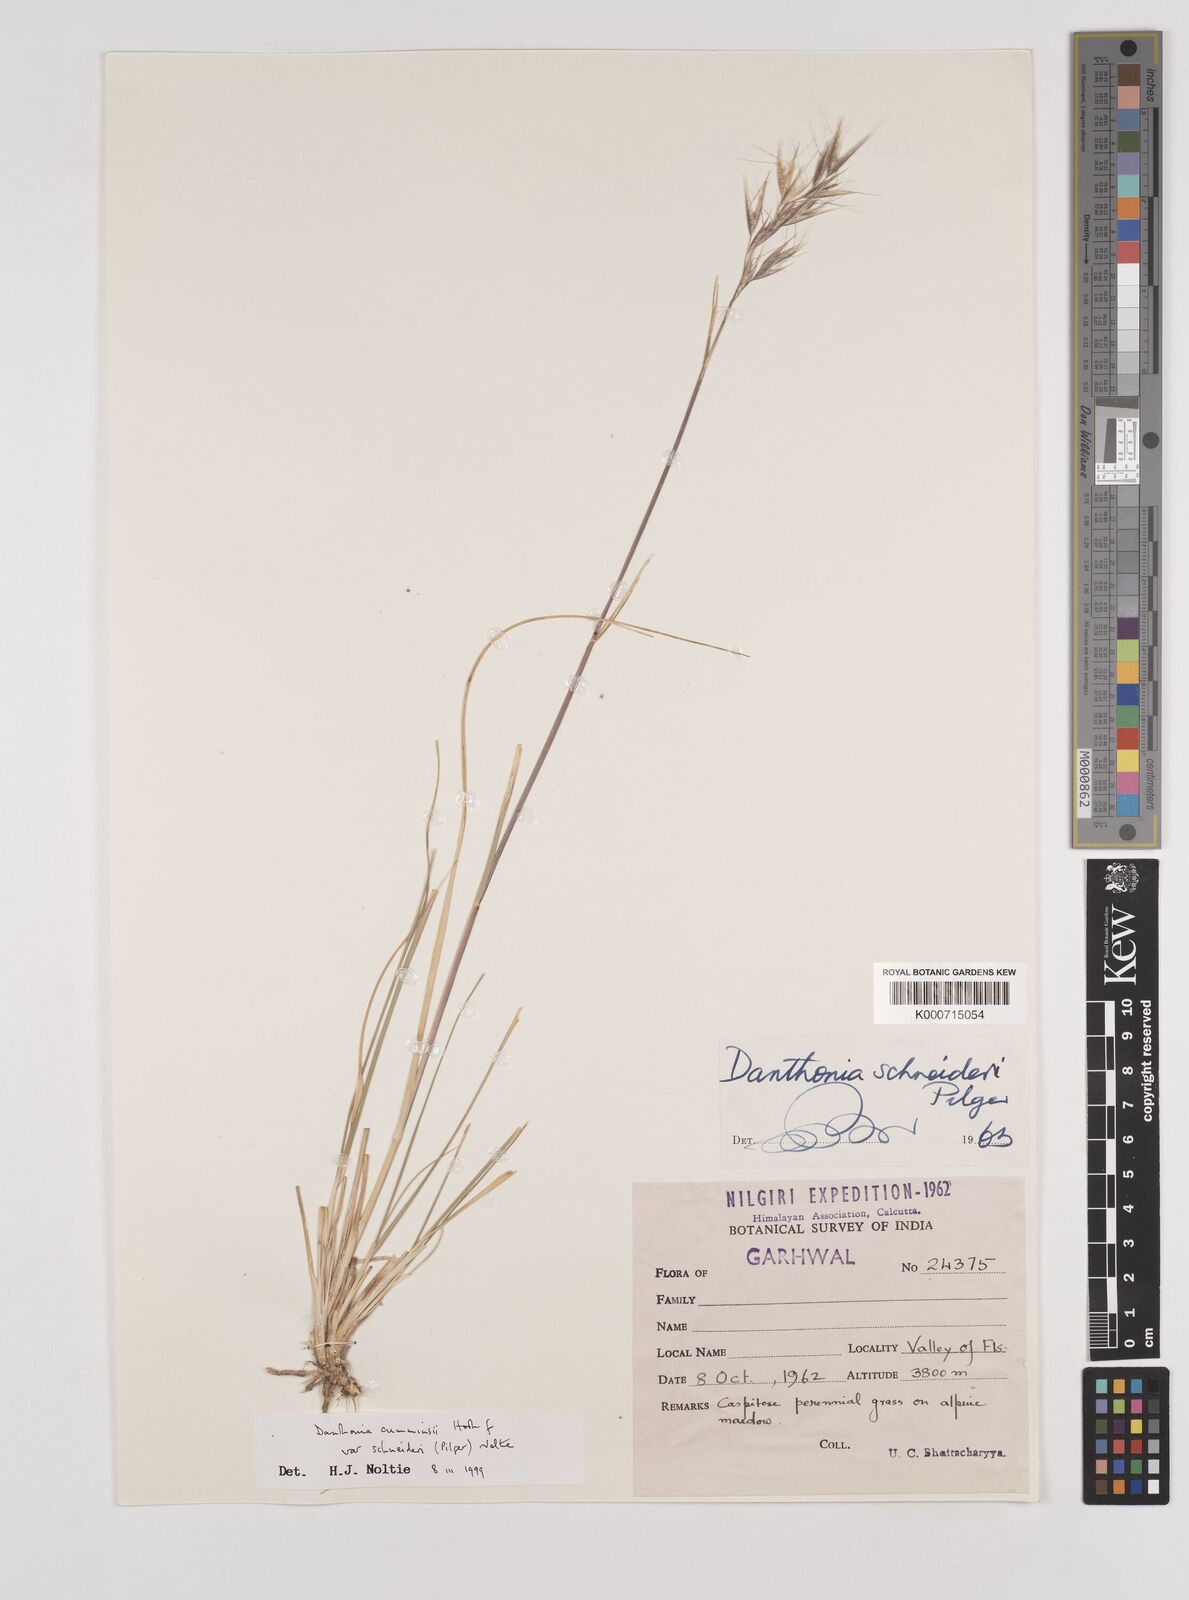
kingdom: Plantae
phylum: Tracheophyta
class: Liliopsida
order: Poales
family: Poaceae
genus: Rytidosperma
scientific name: Rytidosperma
